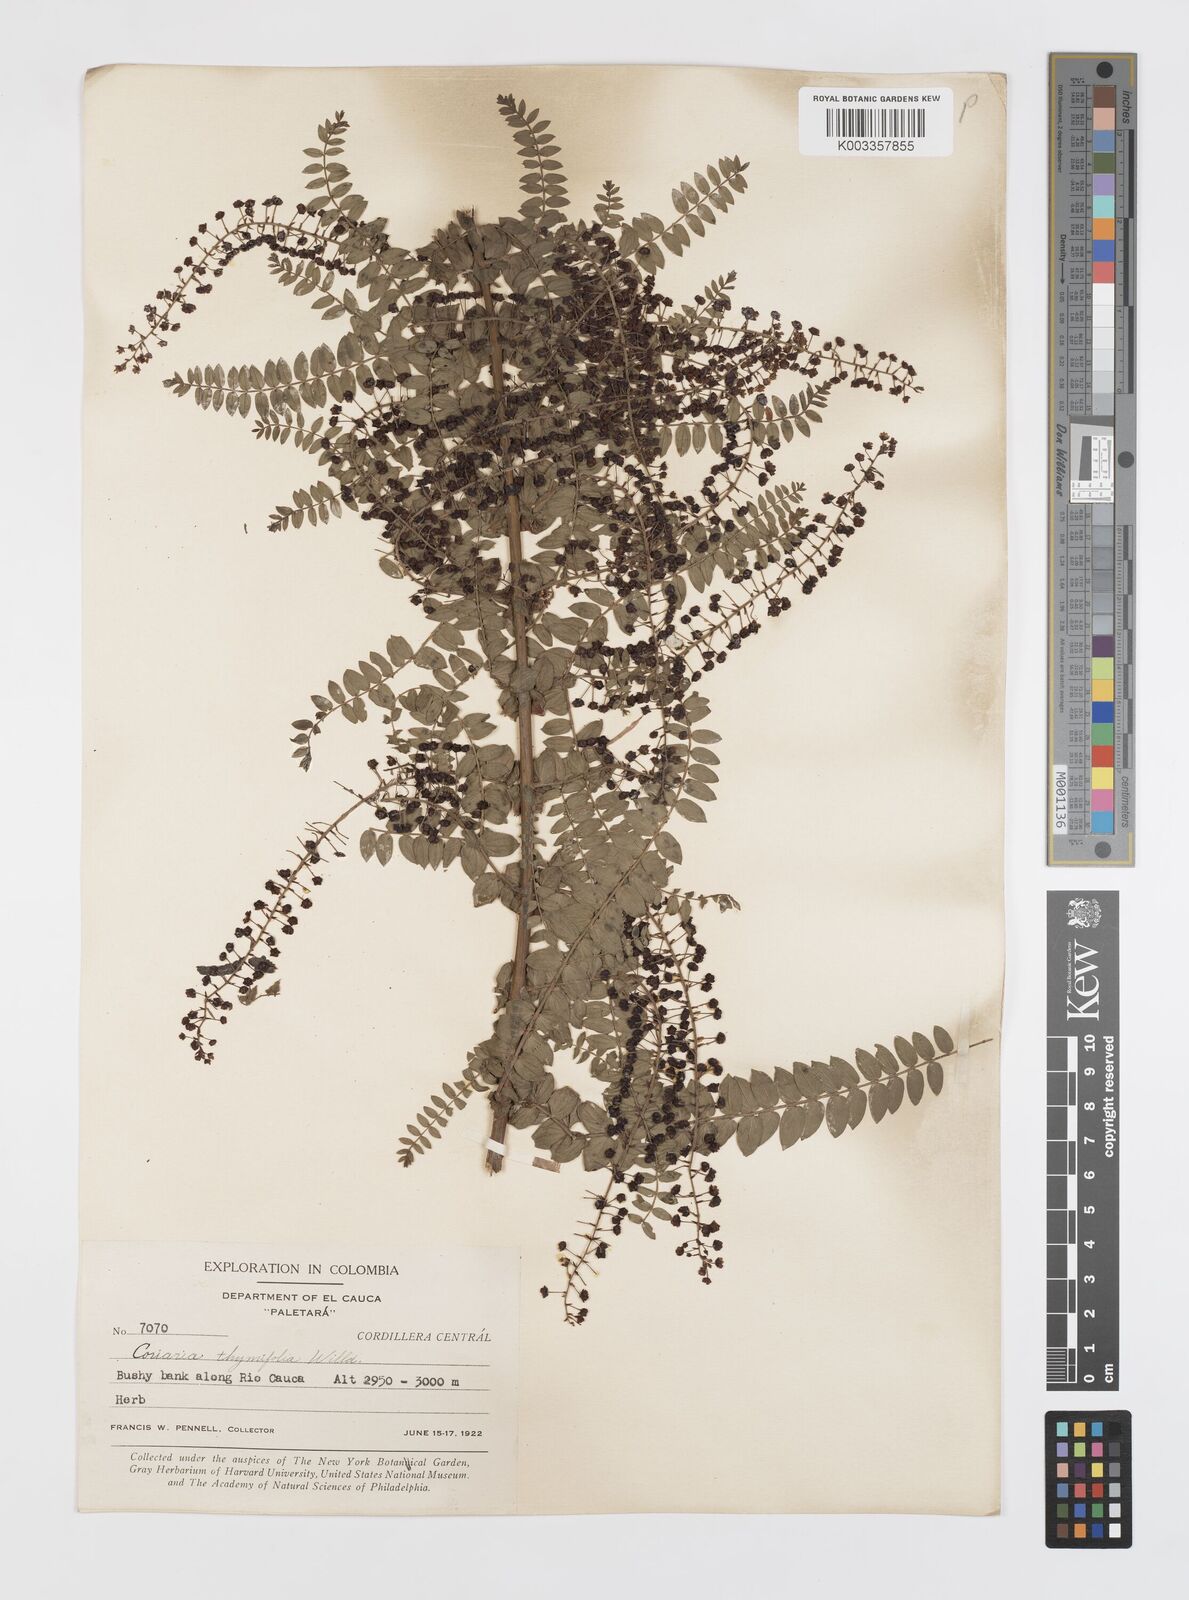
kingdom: Plantae
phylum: Tracheophyta
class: Magnoliopsida
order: Cucurbitales
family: Coriariaceae
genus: Coriaria
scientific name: Coriaria microphylla
